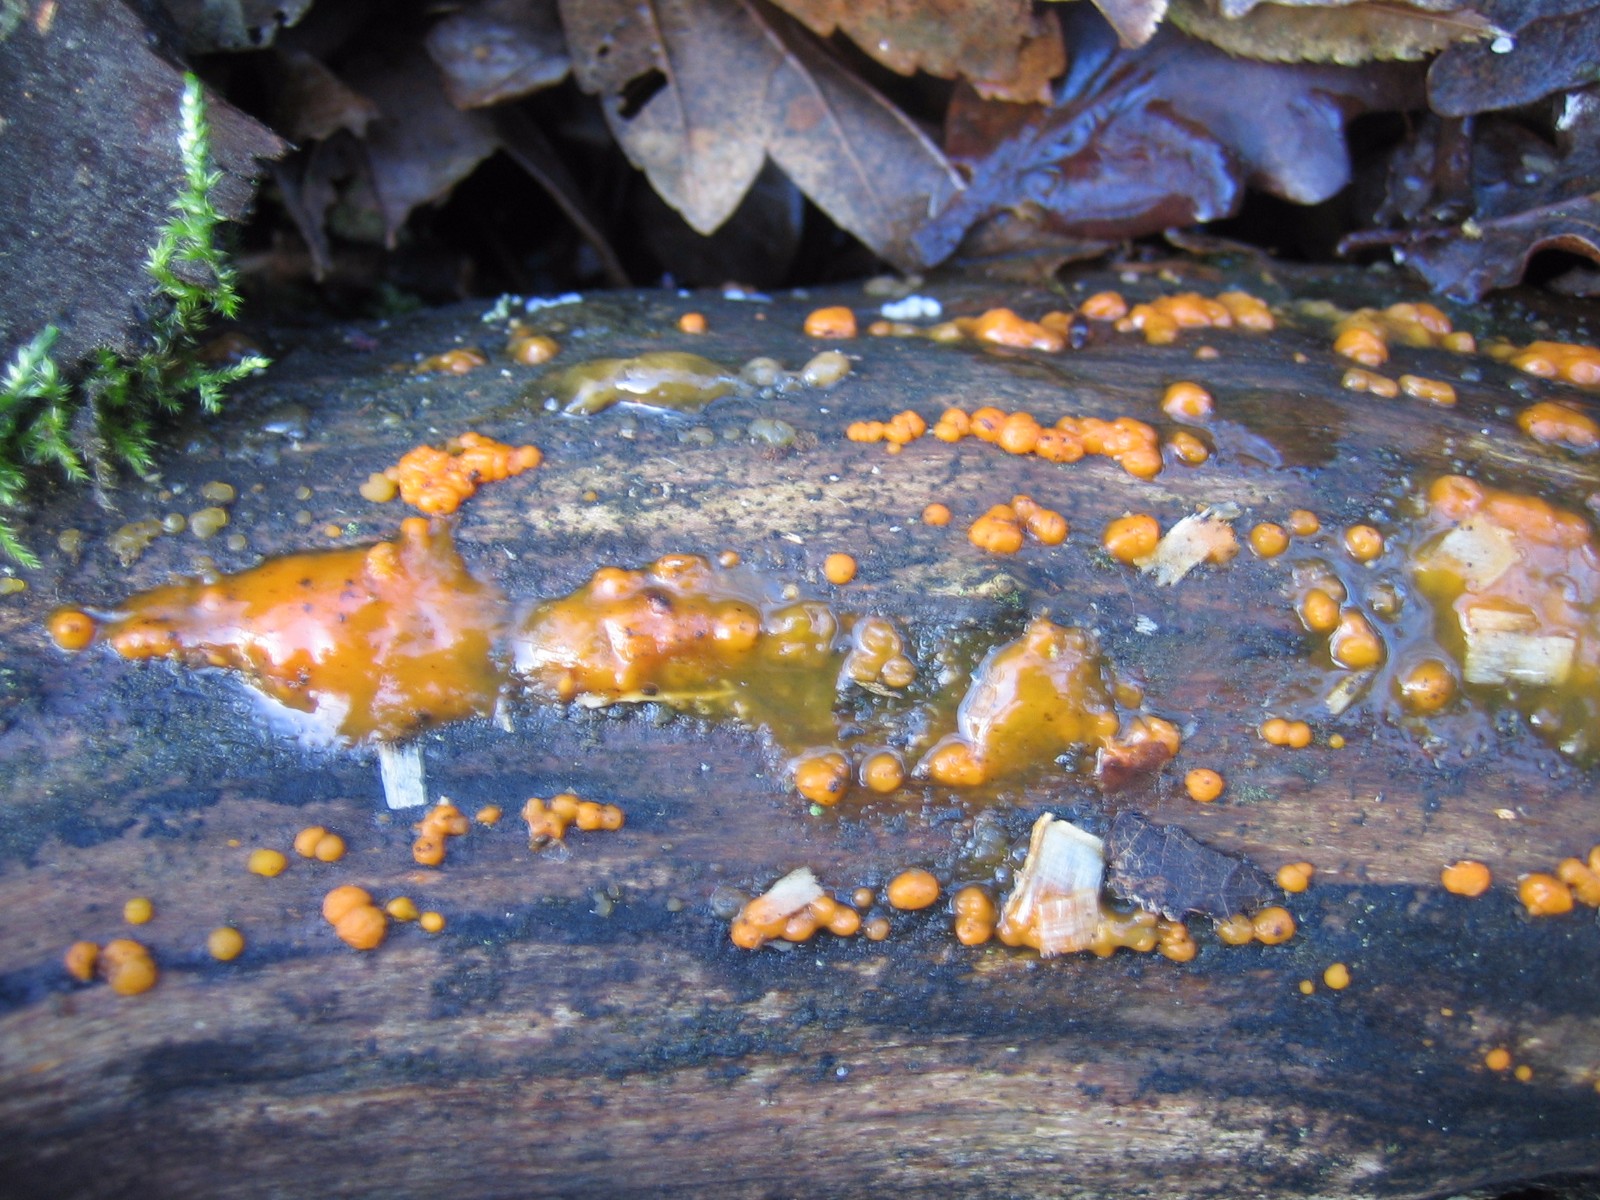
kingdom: Fungi
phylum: Basidiomycota
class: Dacrymycetes
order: Dacrymycetales
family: Dacrymycetaceae
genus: Dacrymyces
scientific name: Dacrymyces stillatus
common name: almindelig tåresvamp
